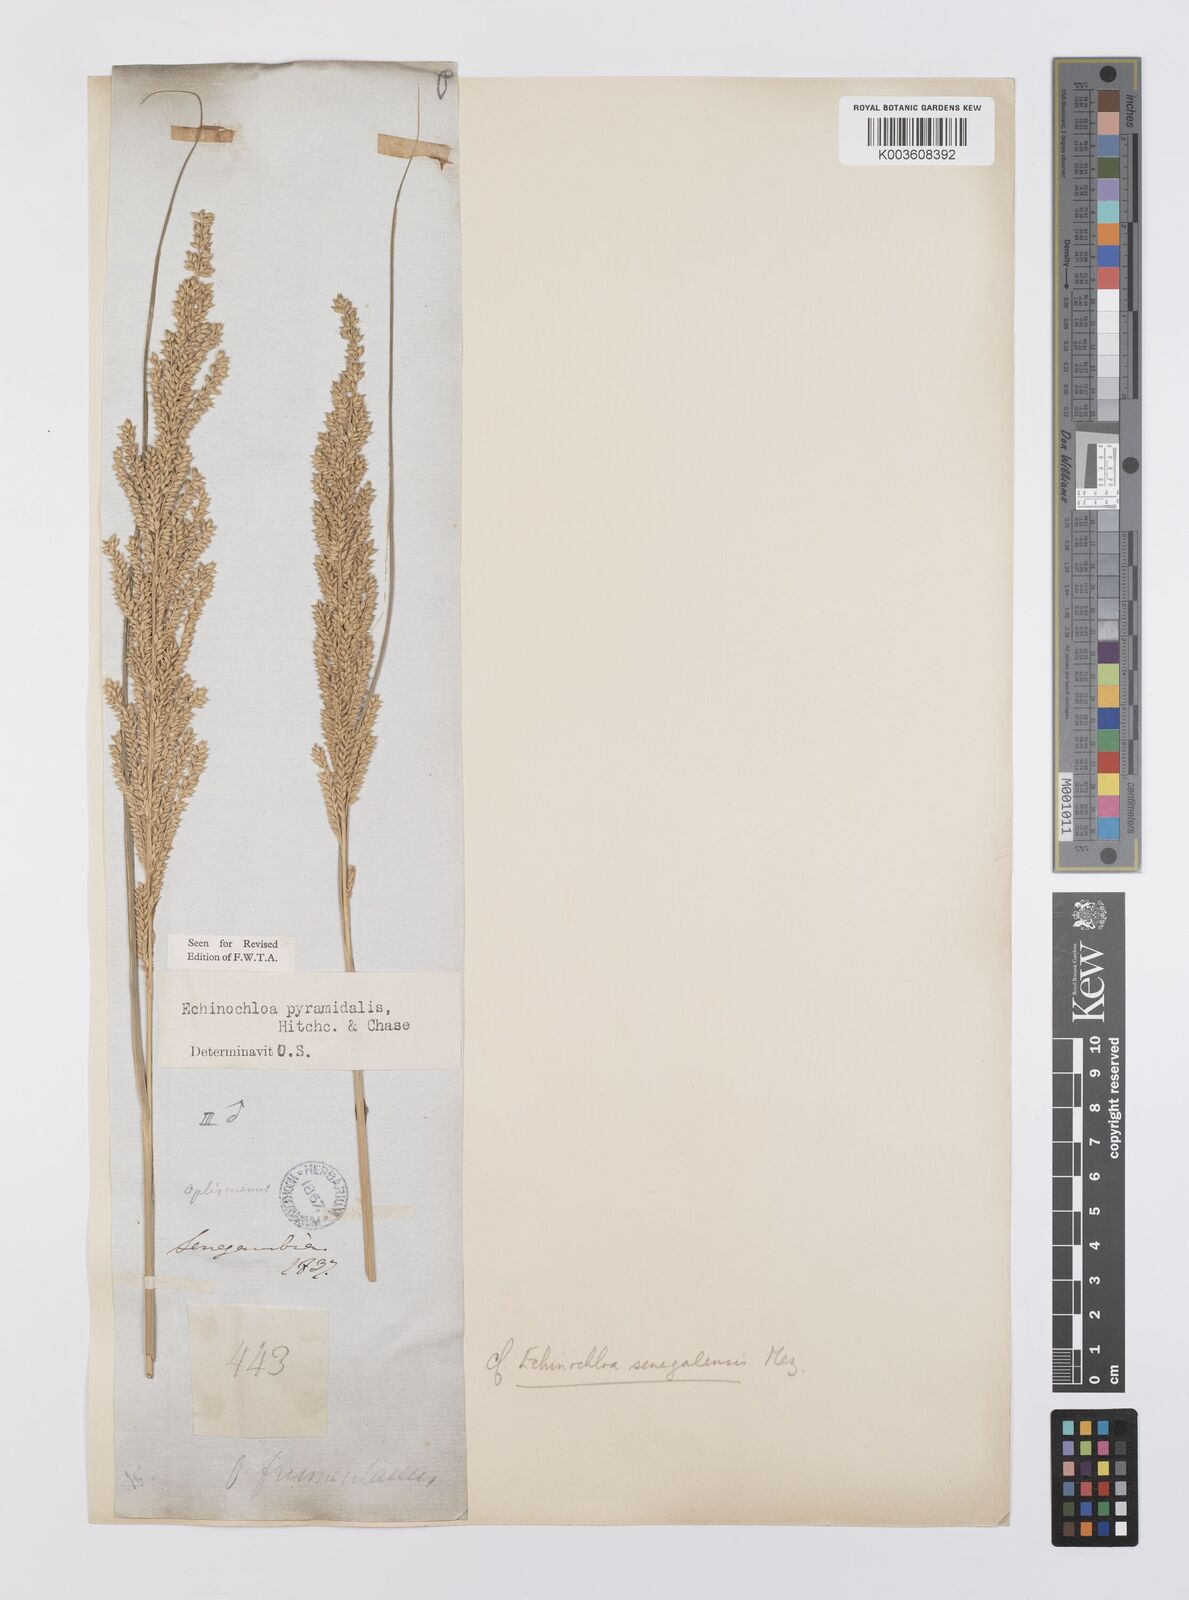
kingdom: Plantae
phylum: Tracheophyta
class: Liliopsida
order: Poales
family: Poaceae
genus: Echinochloa
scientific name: Echinochloa pyramidalis
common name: Antelope grass
